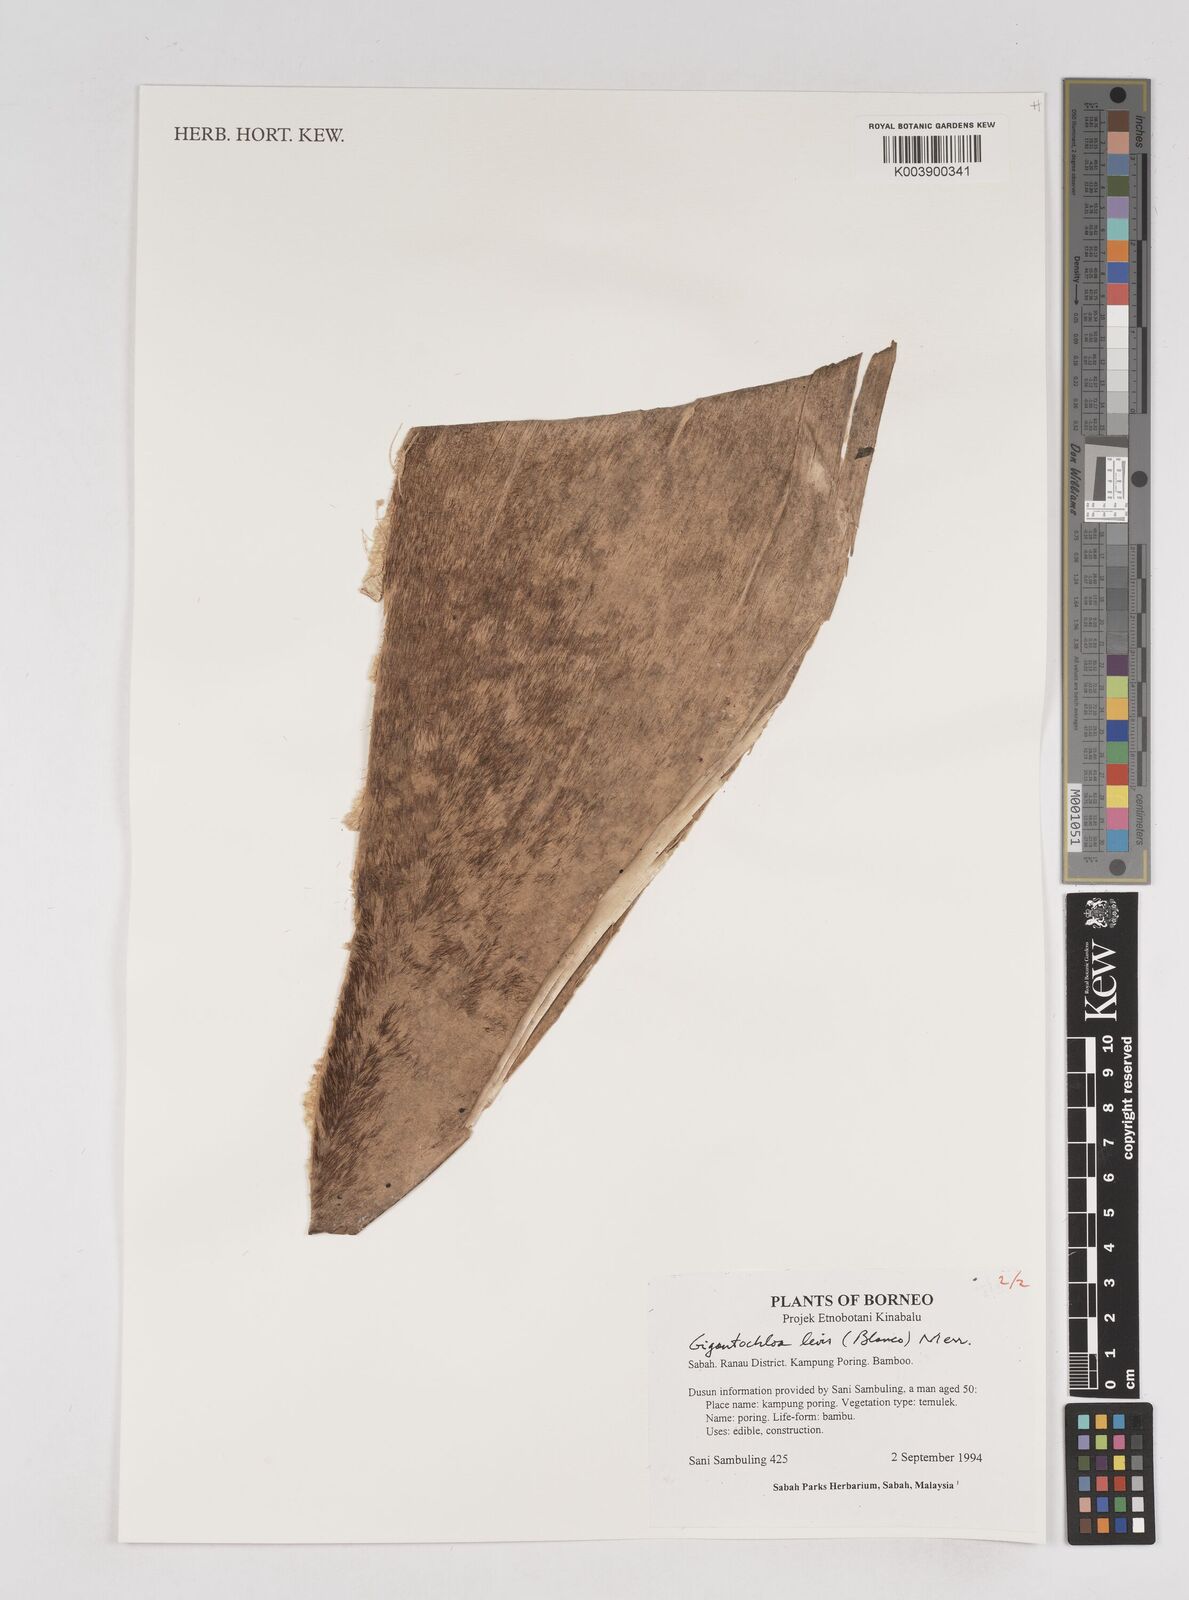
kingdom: Plantae
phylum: Tracheophyta
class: Liliopsida
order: Poales
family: Poaceae
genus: Gigantochloa
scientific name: Gigantochloa levis
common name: Smooth-shoot gigantochloa
